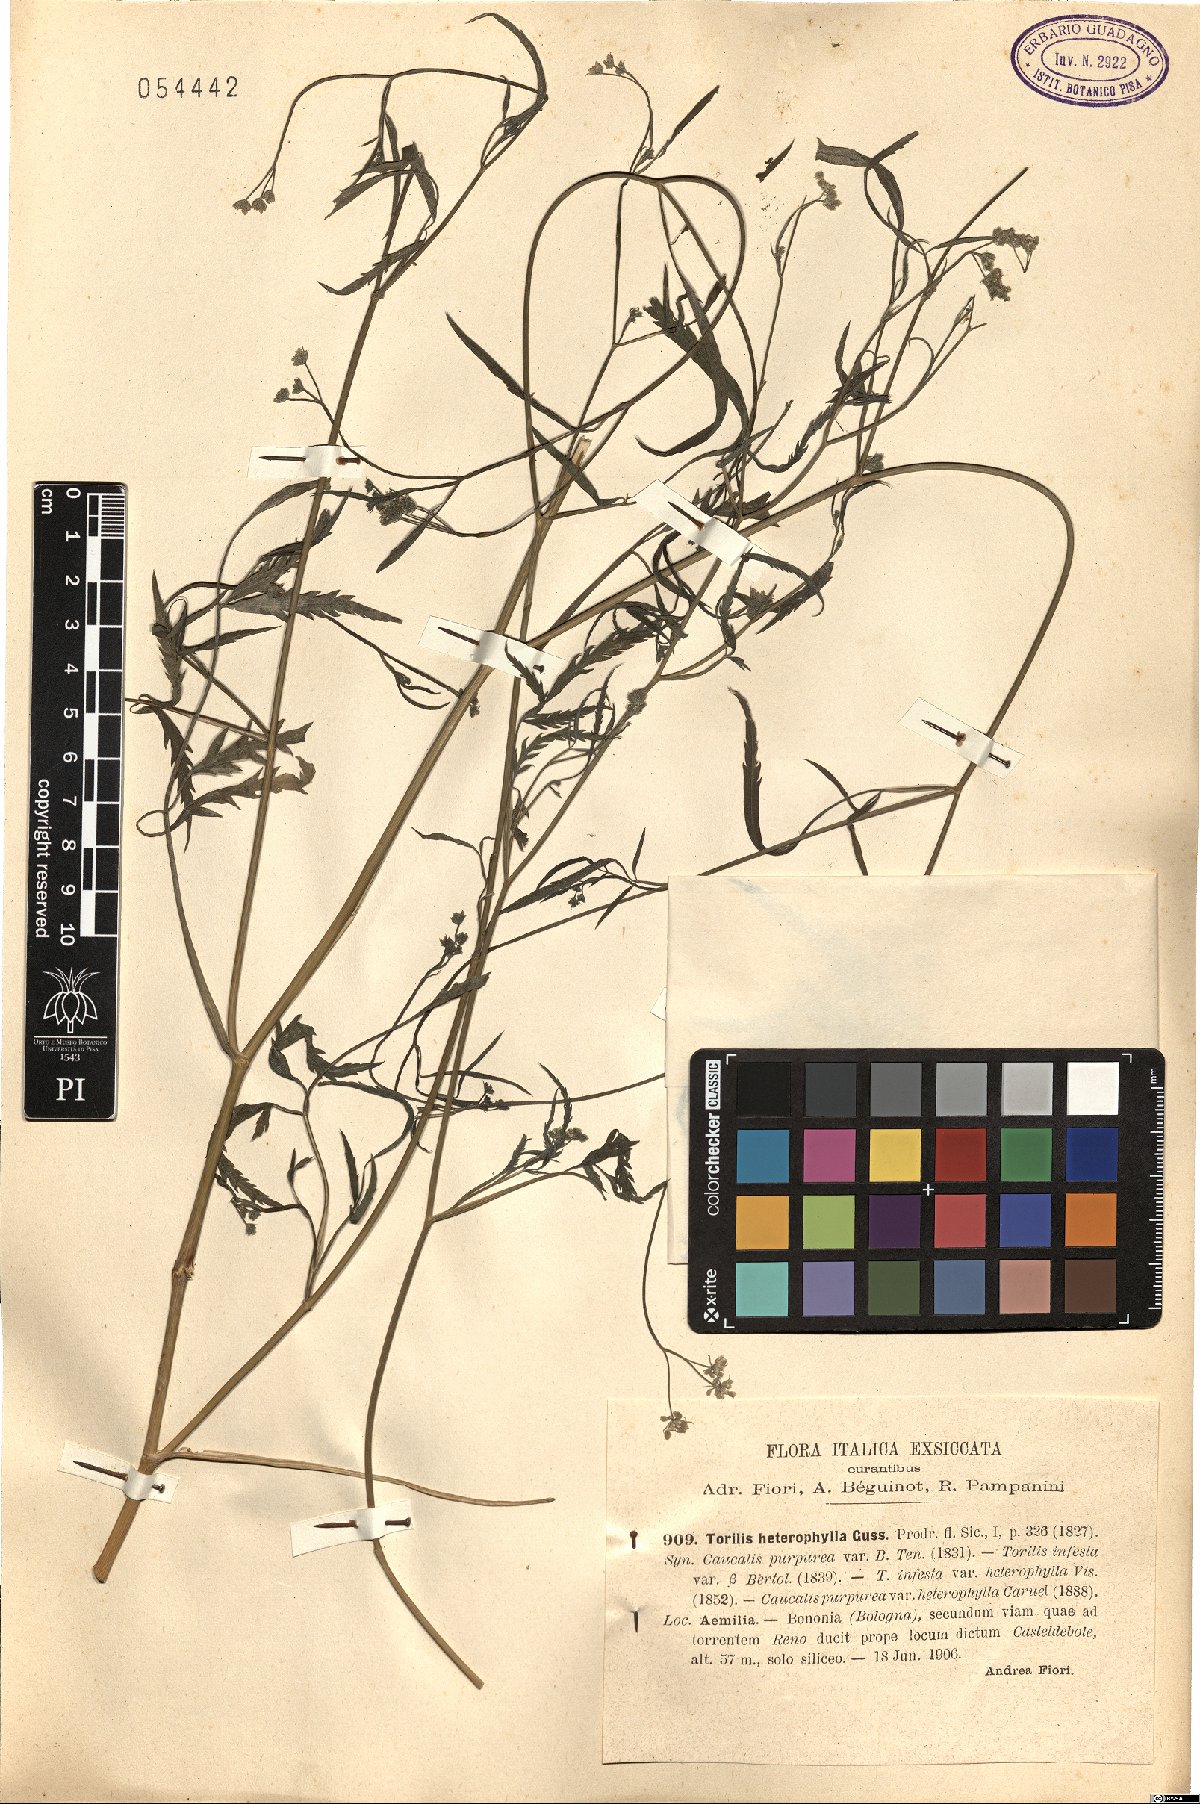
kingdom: Plantae
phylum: Tracheophyta
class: Magnoliopsida
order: Apiales
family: Apiaceae
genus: Torilis
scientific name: Torilis africana
